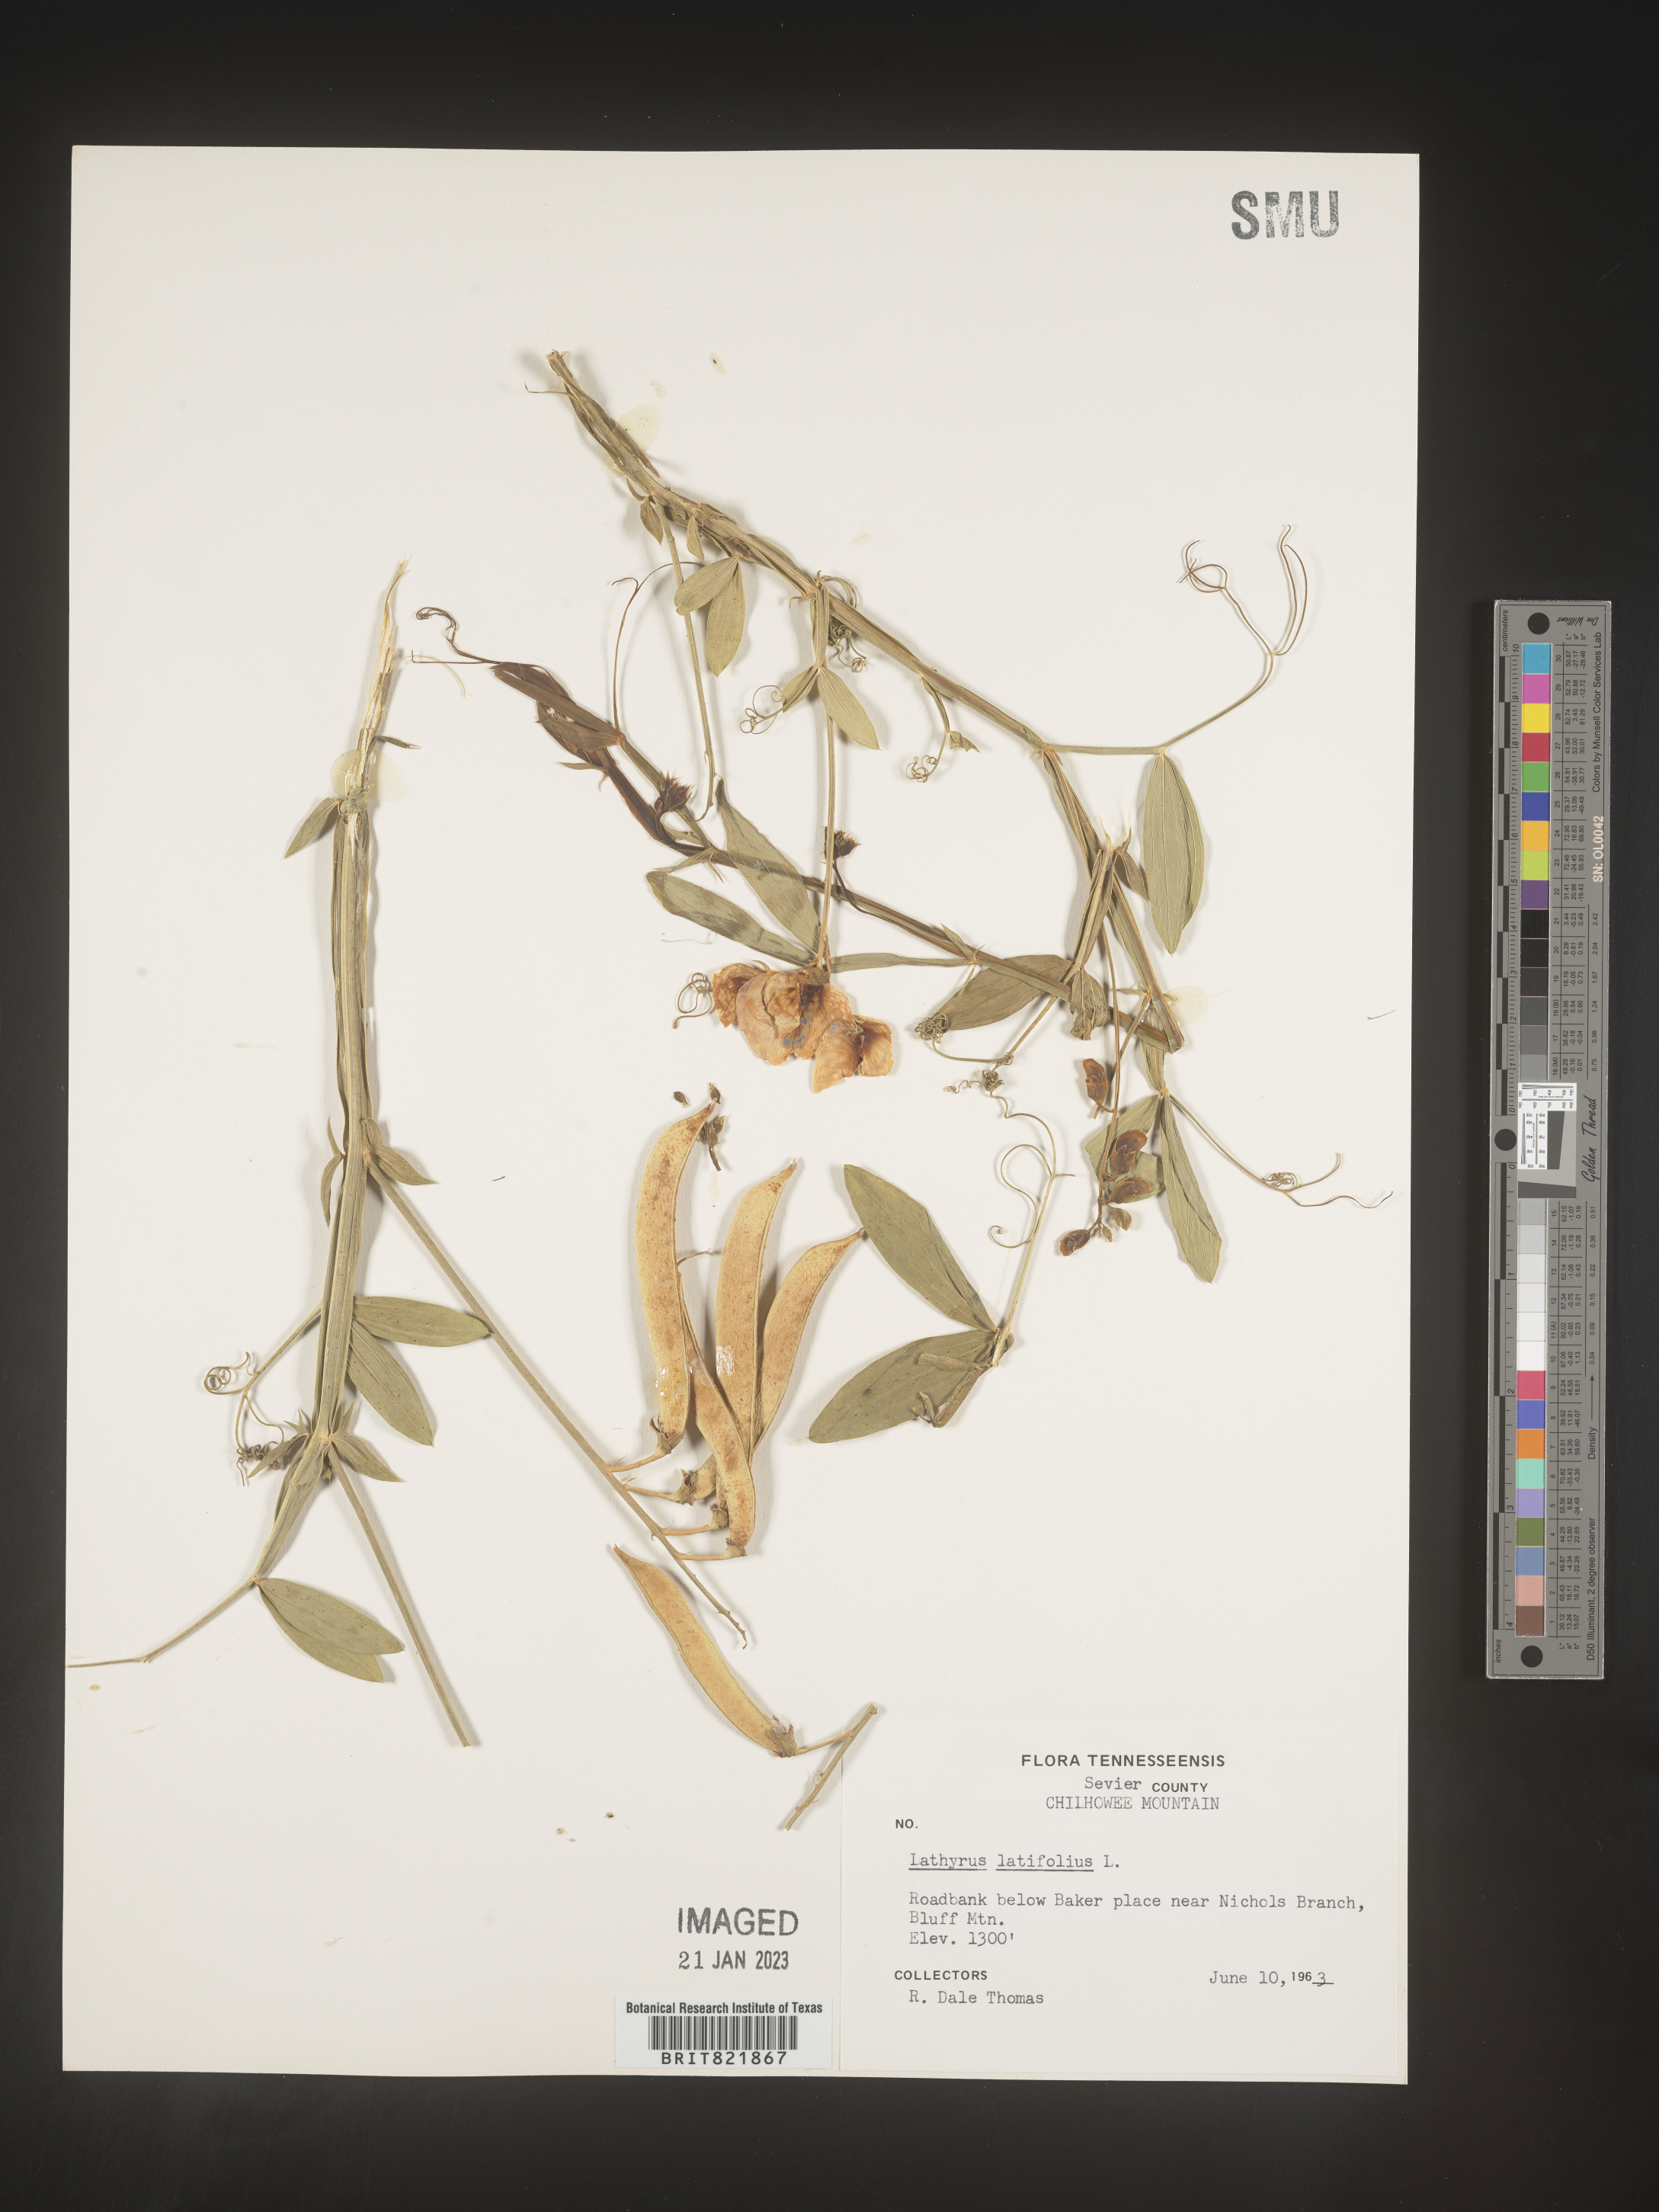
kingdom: Plantae
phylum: Tracheophyta
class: Magnoliopsida
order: Fabales
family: Fabaceae
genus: Lathyrus
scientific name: Lathyrus latifolius
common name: Perennial pea
